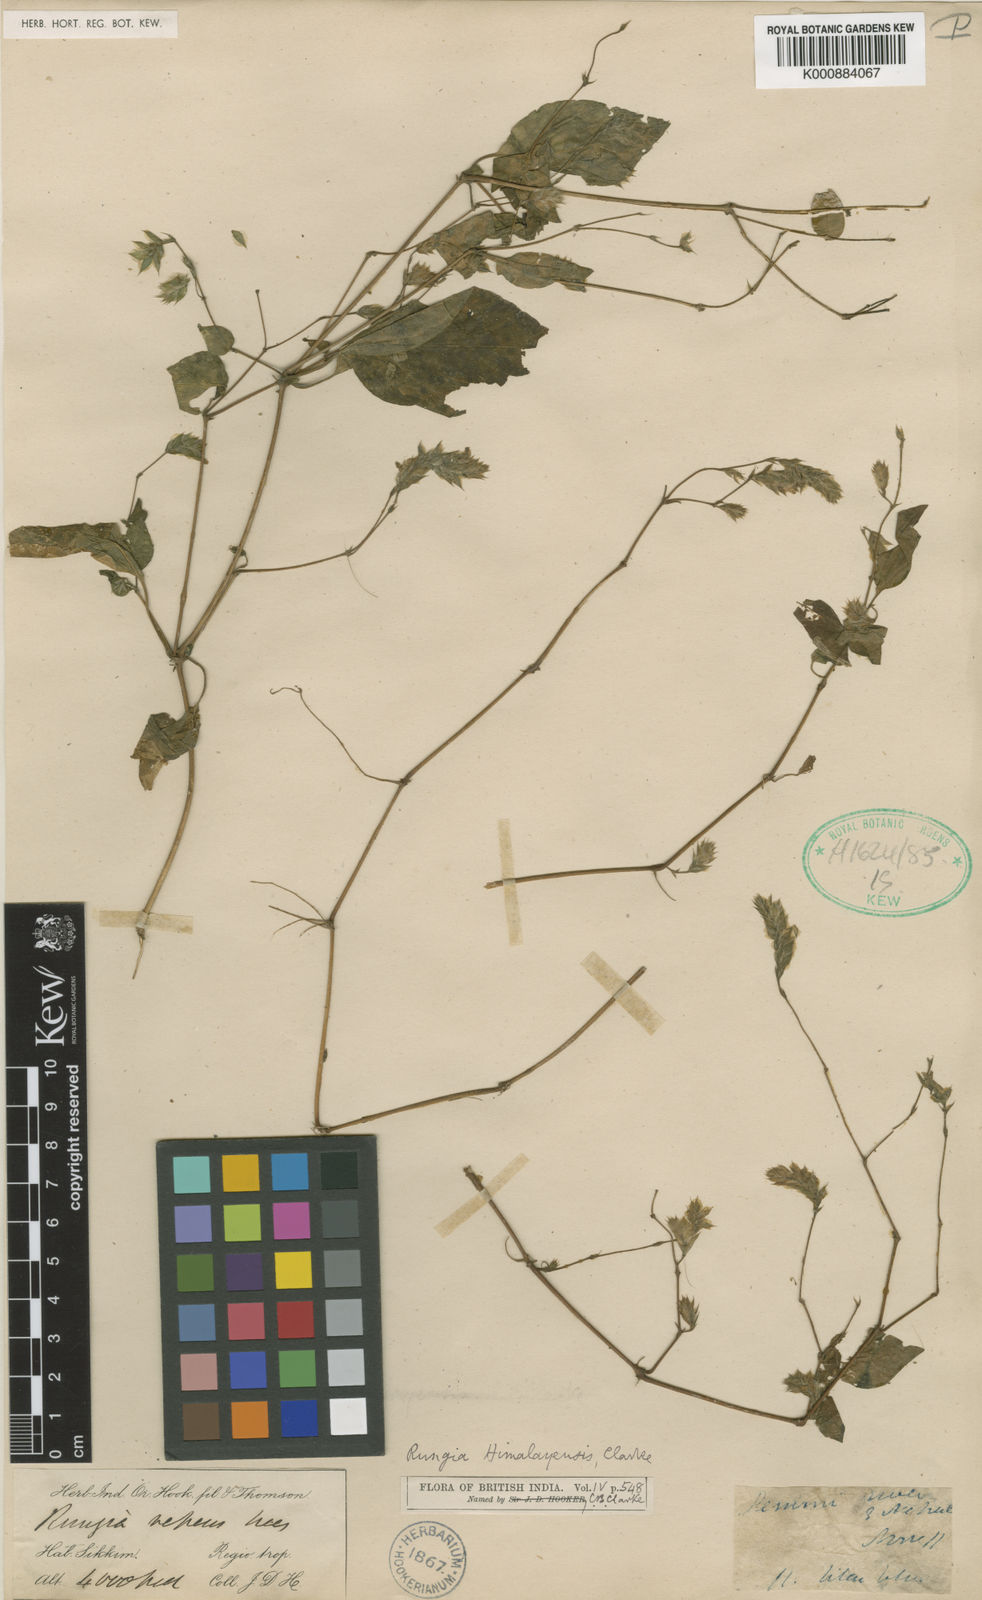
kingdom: Plantae
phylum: Tracheophyta
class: Magnoliopsida
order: Lamiales
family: Acanthaceae
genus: Rungia
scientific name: Rungia himalayensis
